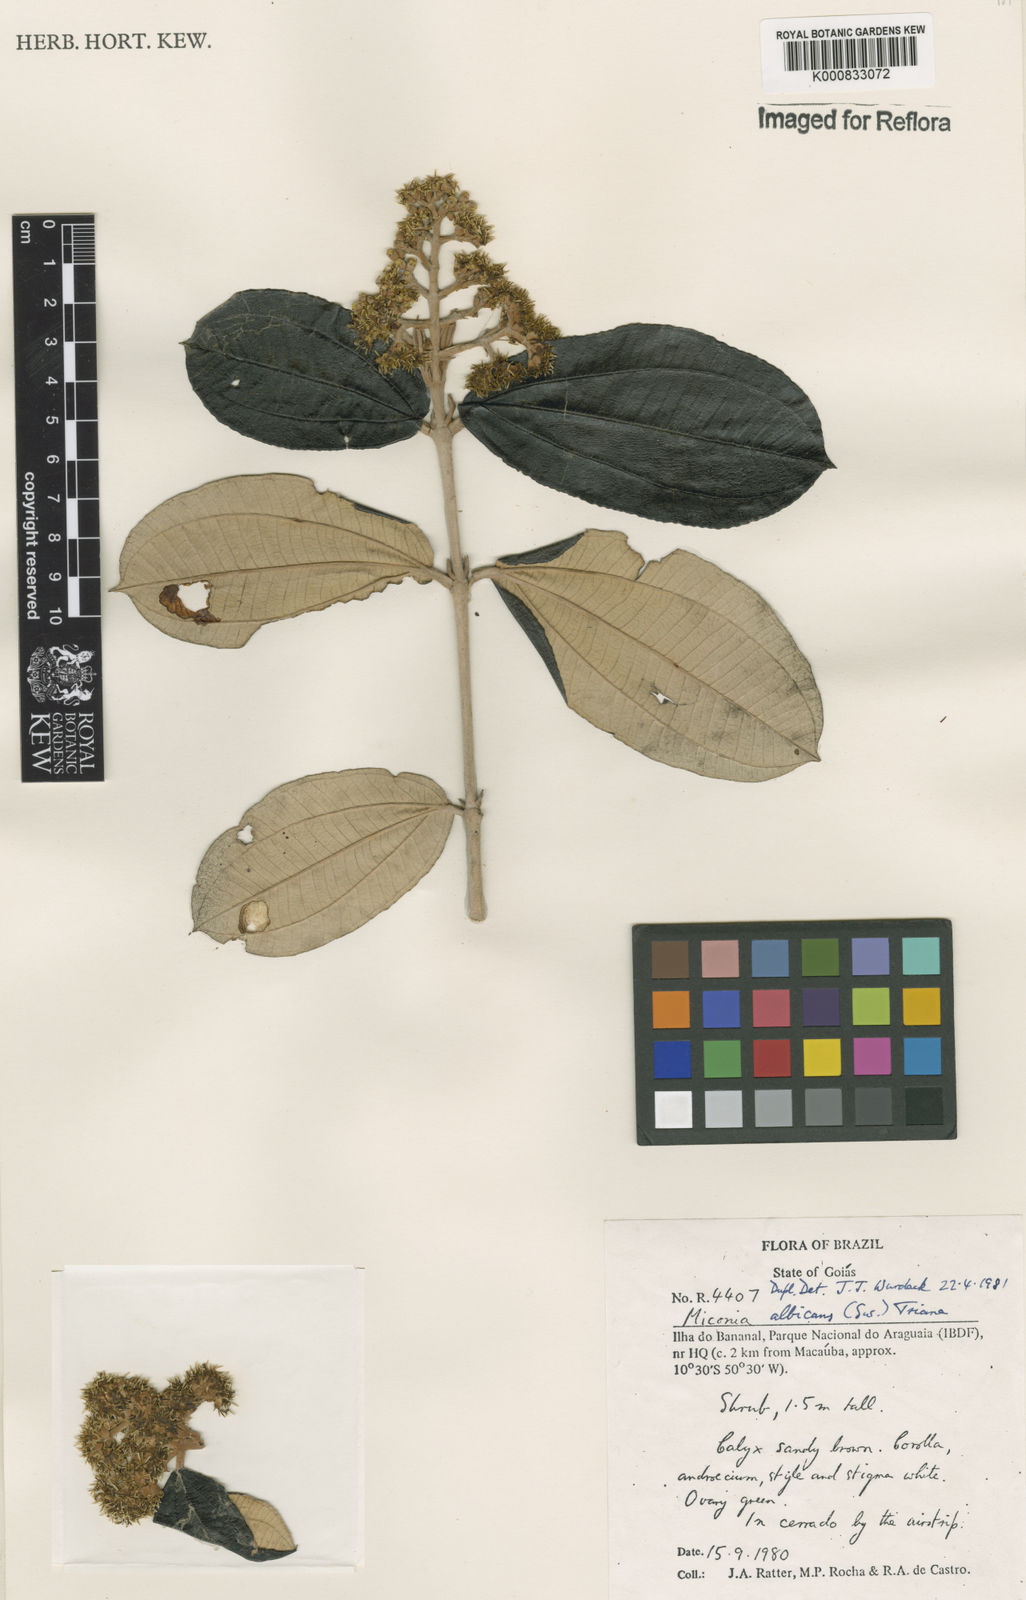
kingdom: Plantae
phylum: Tracheophyta
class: Magnoliopsida
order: Myrtales
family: Melastomataceae
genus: Miconia
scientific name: Miconia albicans
